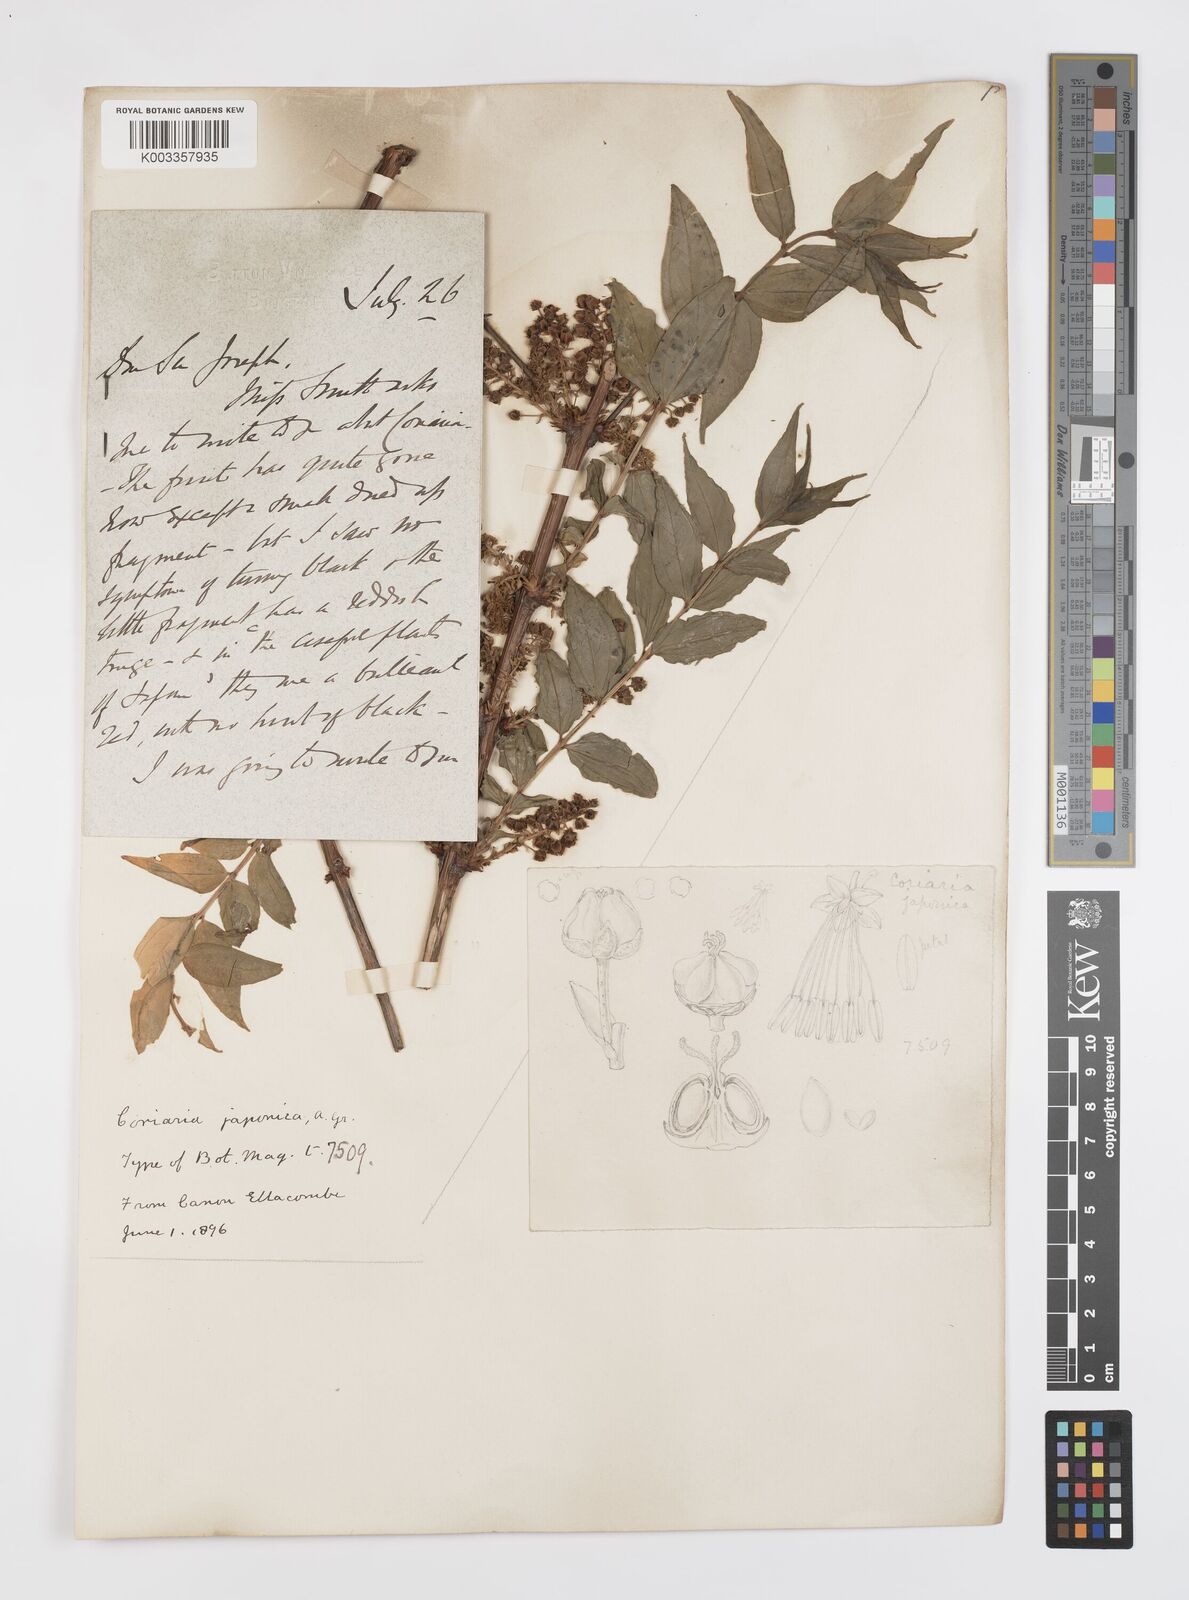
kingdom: Plantae
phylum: Tracheophyta
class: Magnoliopsida
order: Cucurbitales
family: Coriariaceae
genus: Coriaria
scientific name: Coriaria japonica
